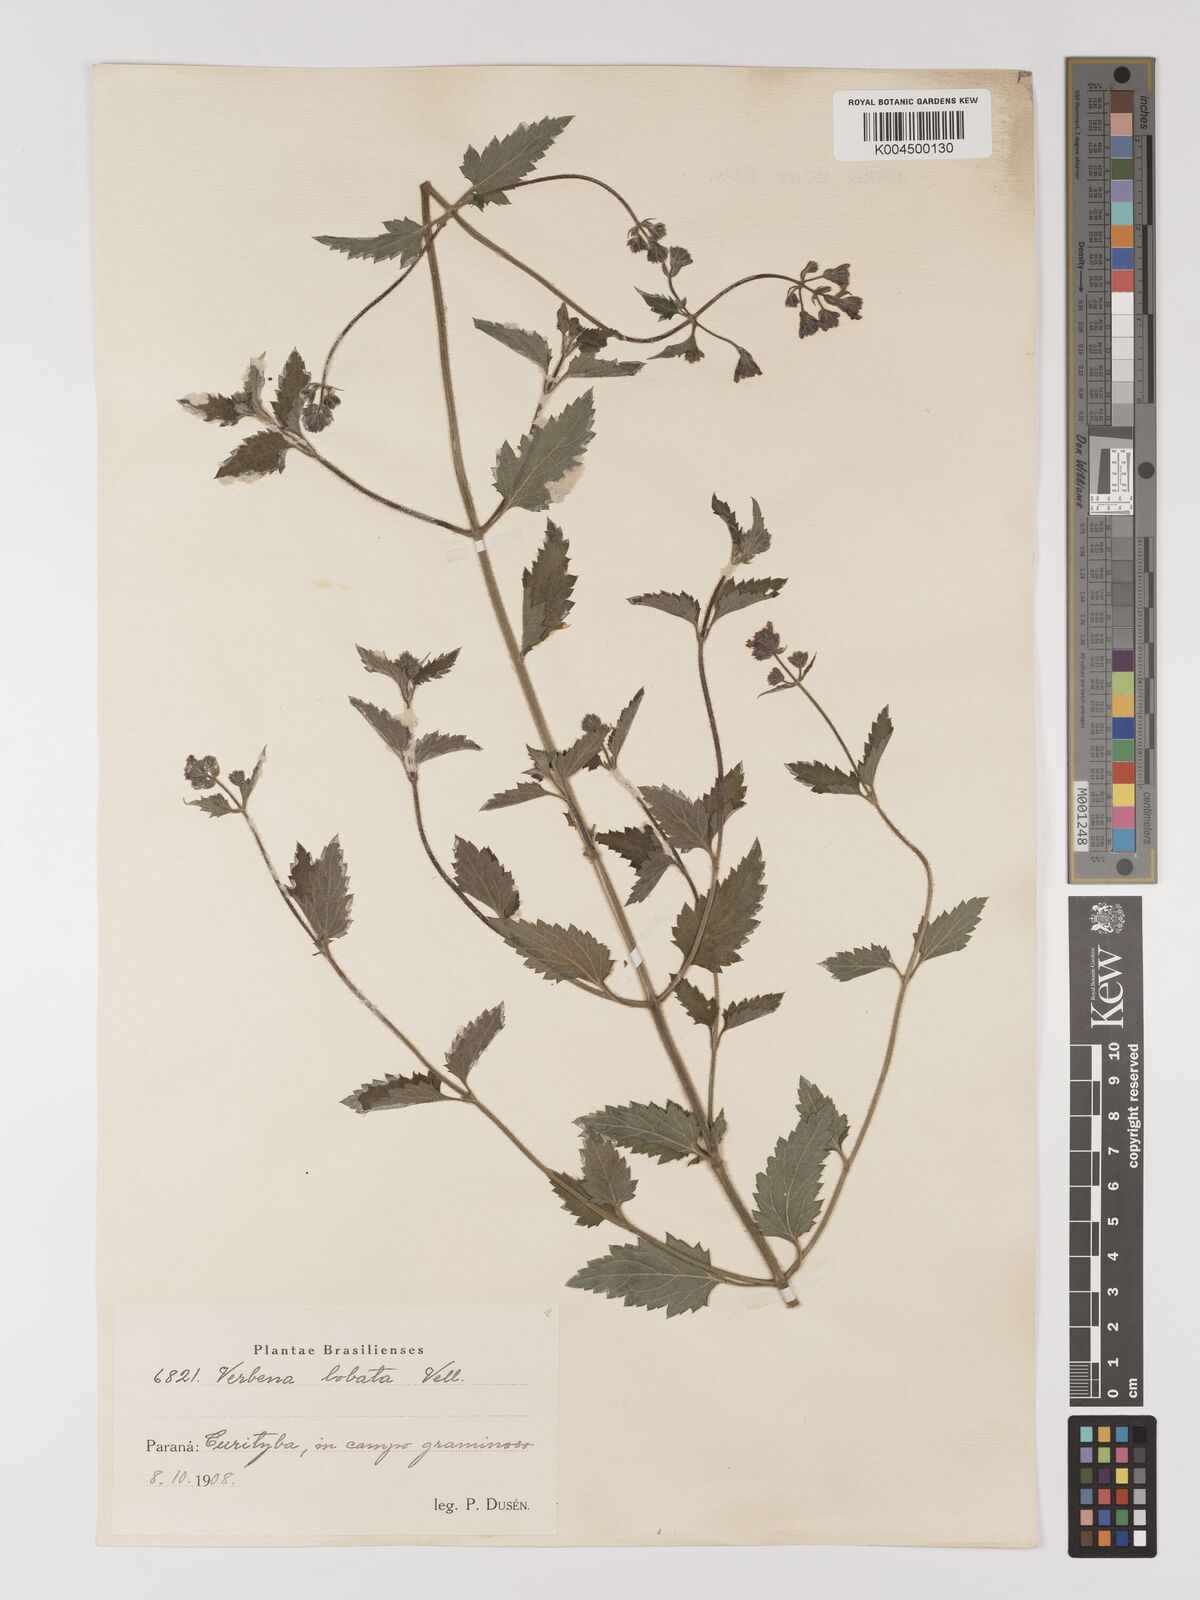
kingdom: Plantae
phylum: Tracheophyta
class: Magnoliopsida
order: Lamiales
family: Verbenaceae
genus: Verbena
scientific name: Verbena lobata
